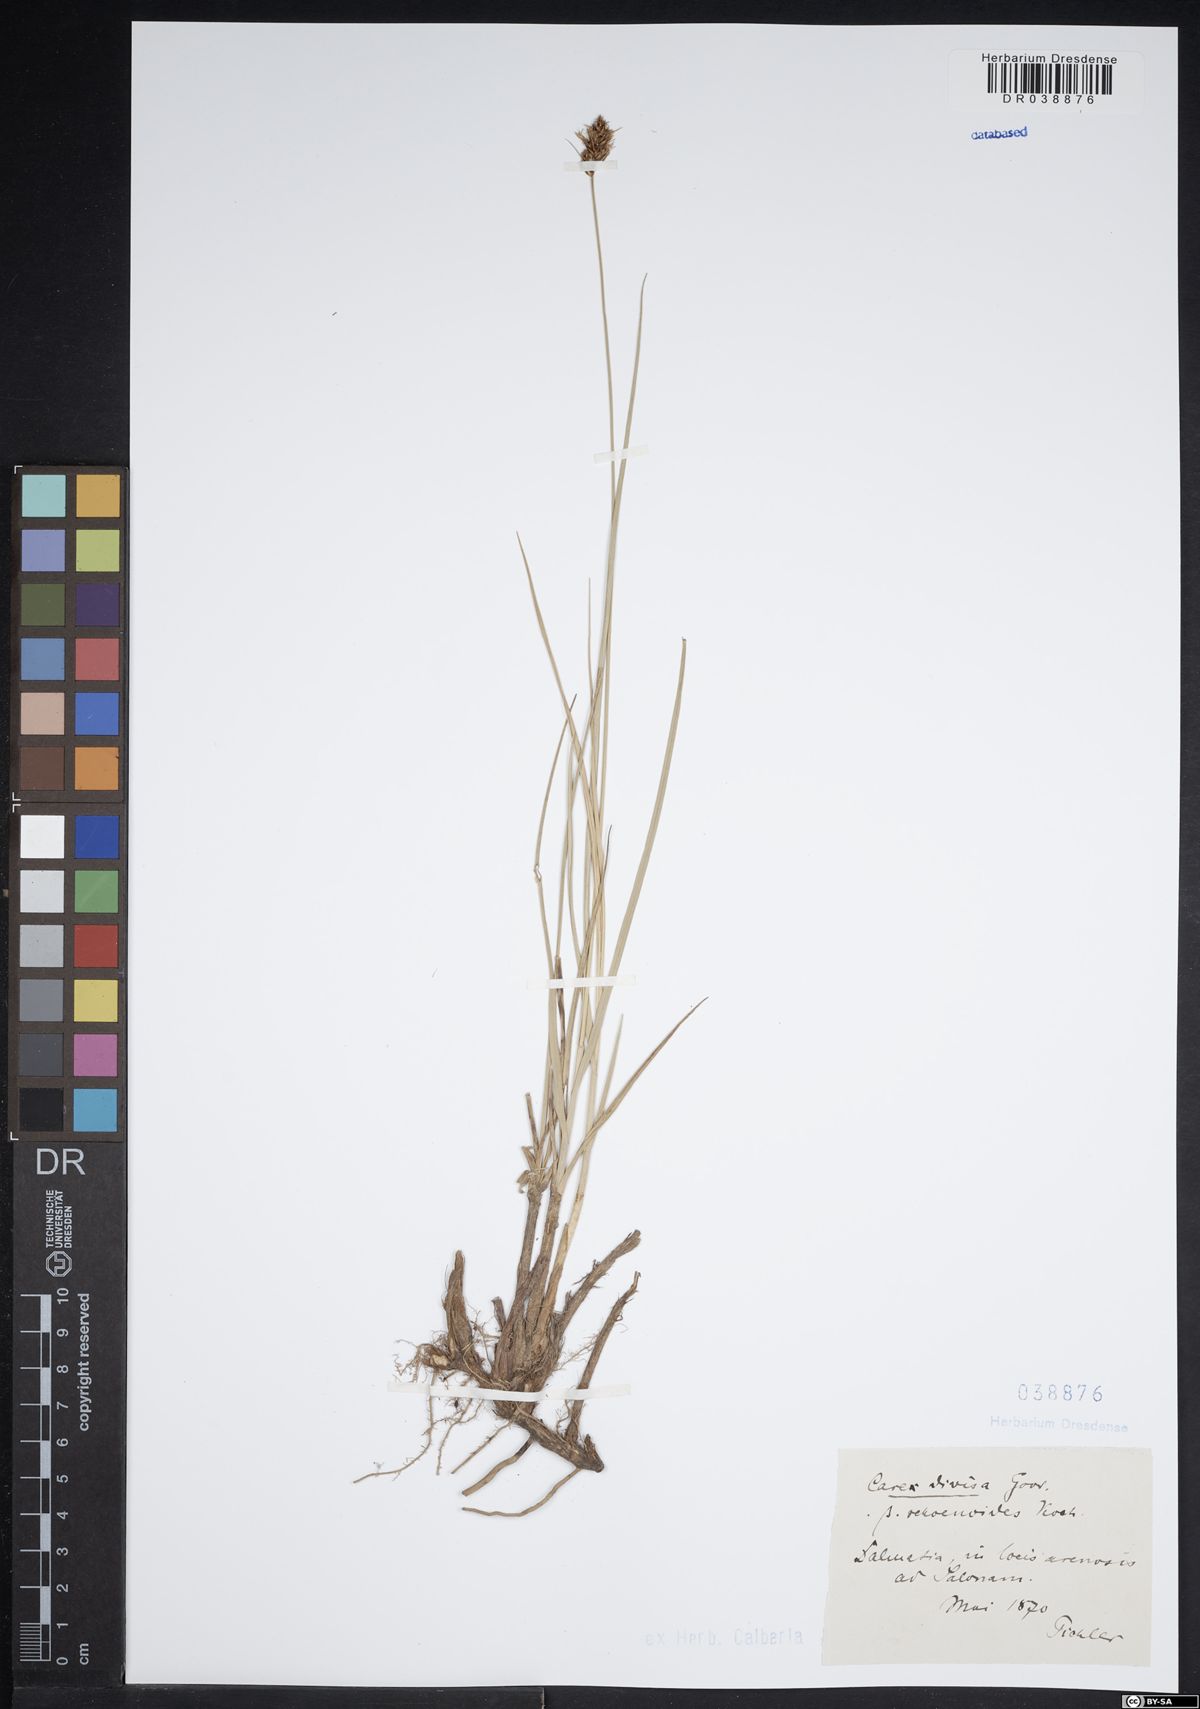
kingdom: Plantae
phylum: Tracheophyta
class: Liliopsida
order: Poales
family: Cyperaceae
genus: Carex
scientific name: Carex divisa
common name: Divided sedge
